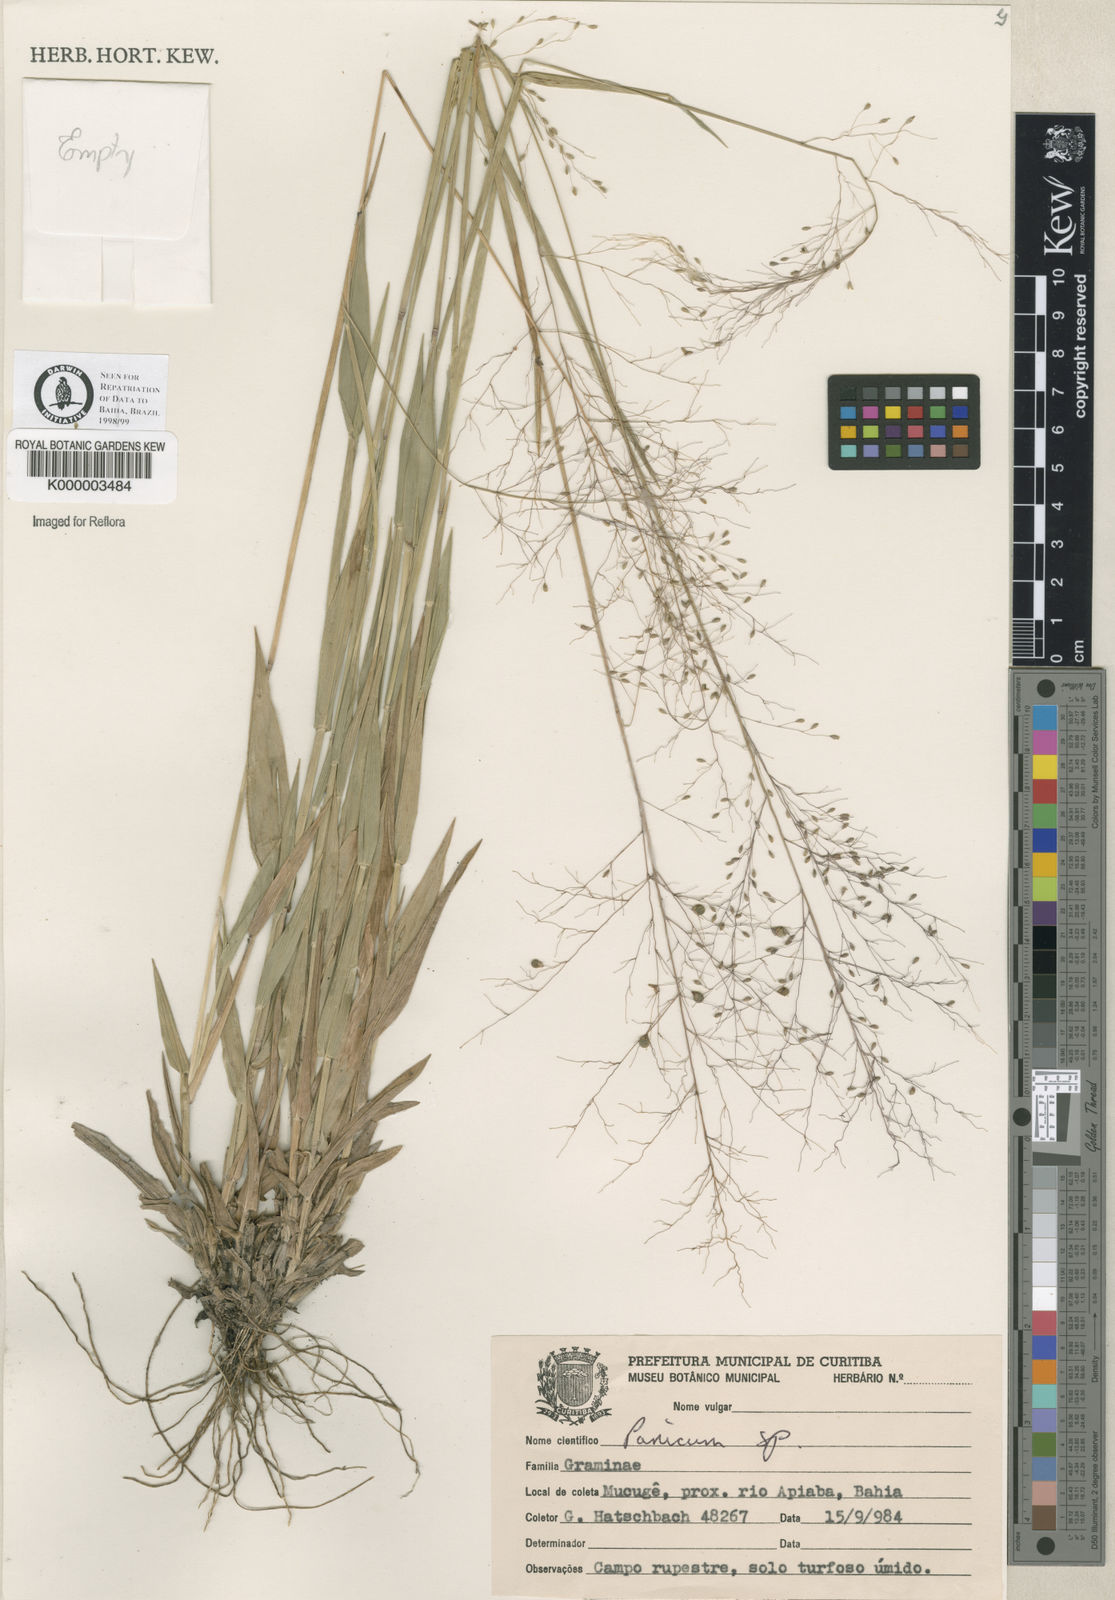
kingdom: Plantae
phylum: Tracheophyta
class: Liliopsida
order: Poales
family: Poaceae
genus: Panicum
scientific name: Panicum
